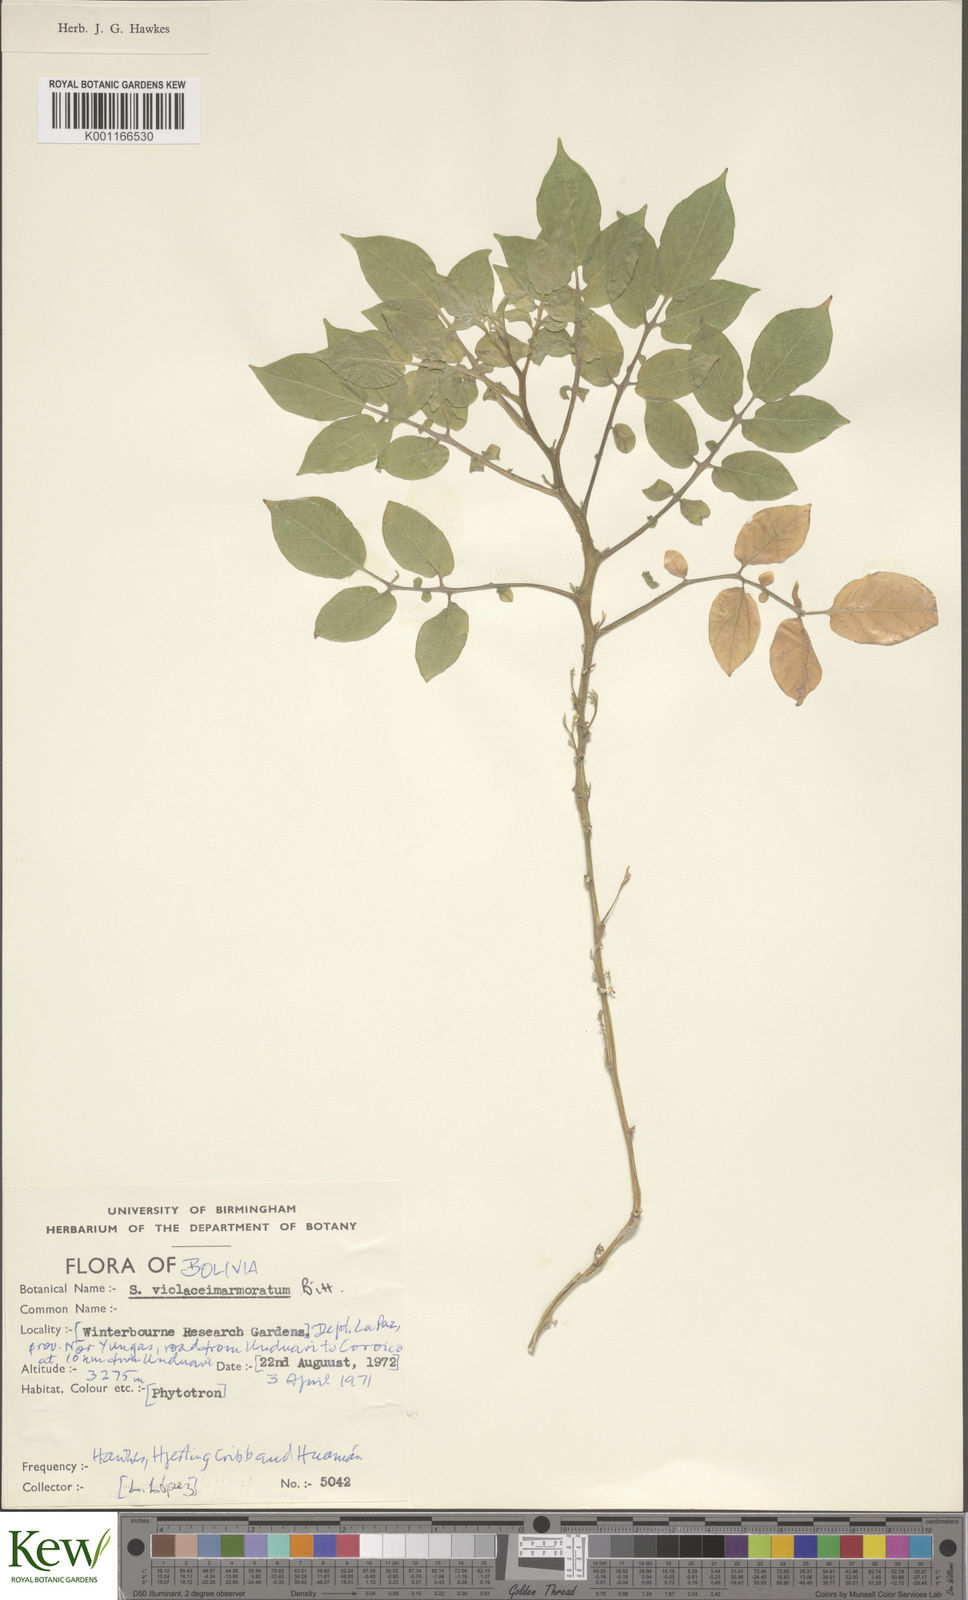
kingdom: Plantae
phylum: Tracheophyta
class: Magnoliopsida
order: Solanales
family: Solanaceae
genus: Solanum
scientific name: Solanum violaceimarmoratum
